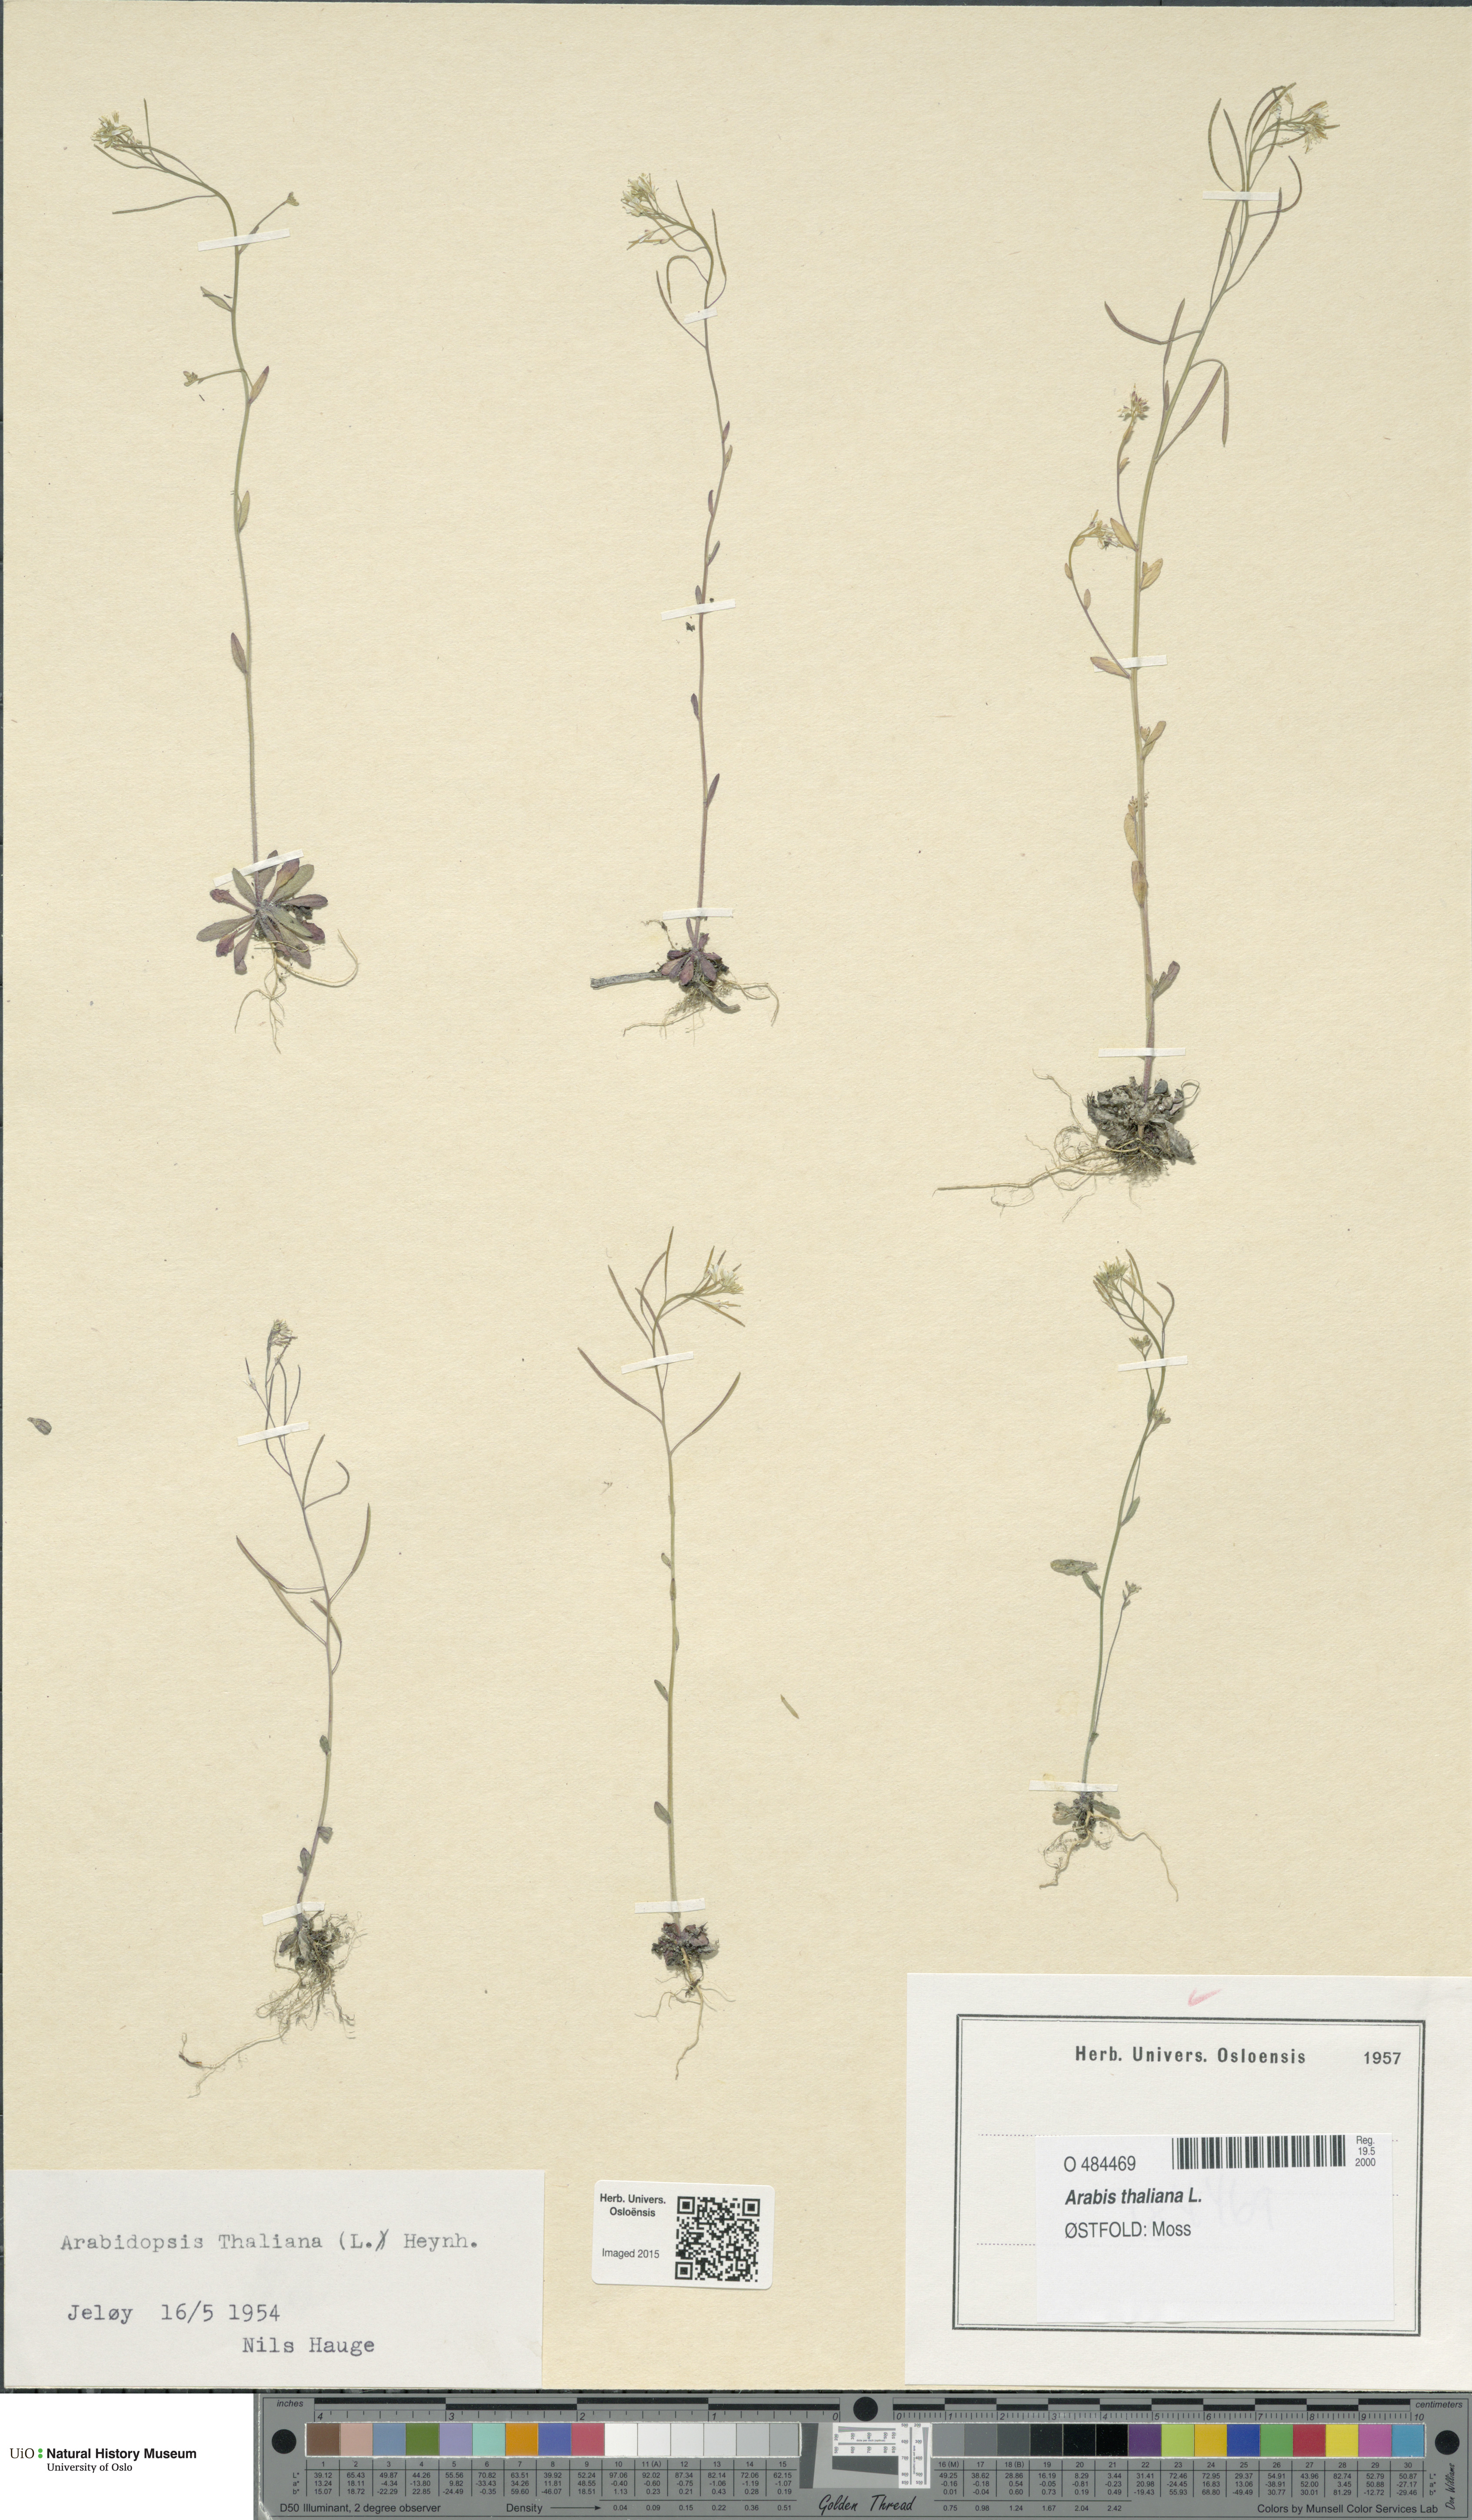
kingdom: Plantae
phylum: Tracheophyta
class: Magnoliopsida
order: Brassicales
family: Brassicaceae
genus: Arabidopsis
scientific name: Arabidopsis thaliana
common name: Thale cress
